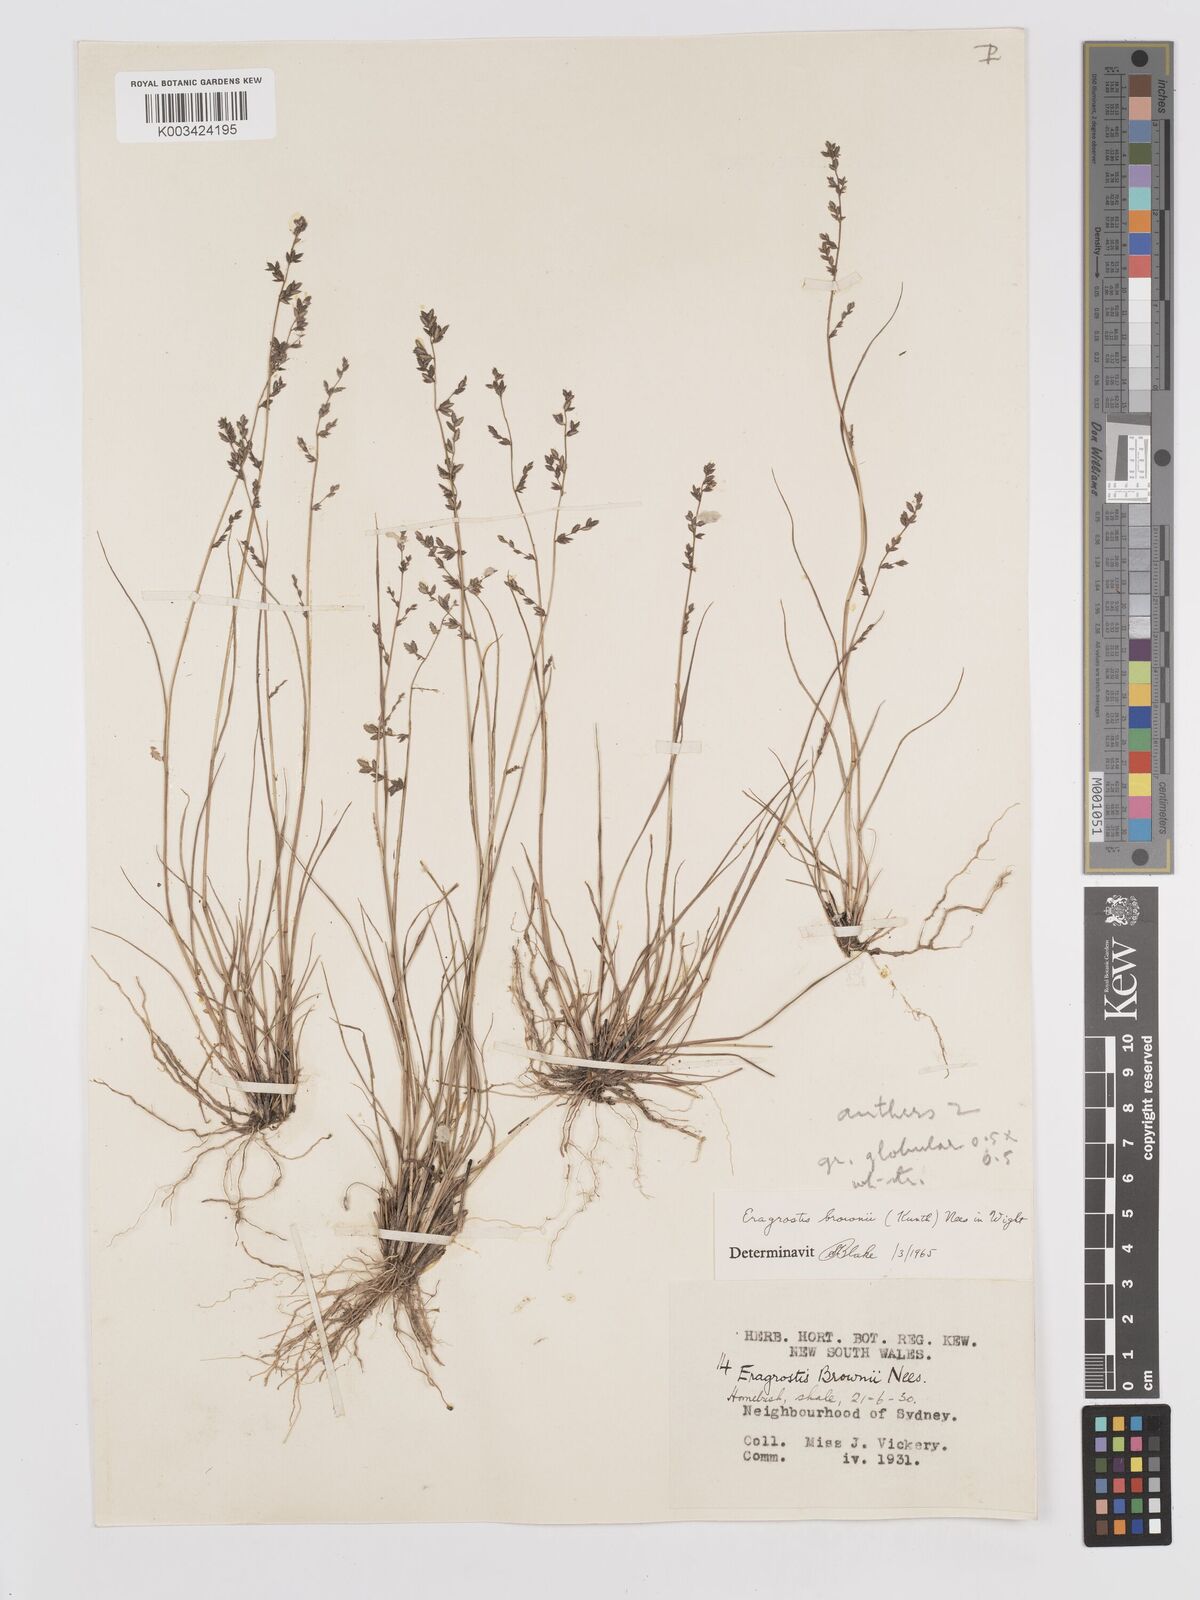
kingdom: Plantae
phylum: Tracheophyta
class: Liliopsida
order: Poales
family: Poaceae
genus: Eragrostis
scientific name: Eragrostis brownii
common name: Lovegrass
